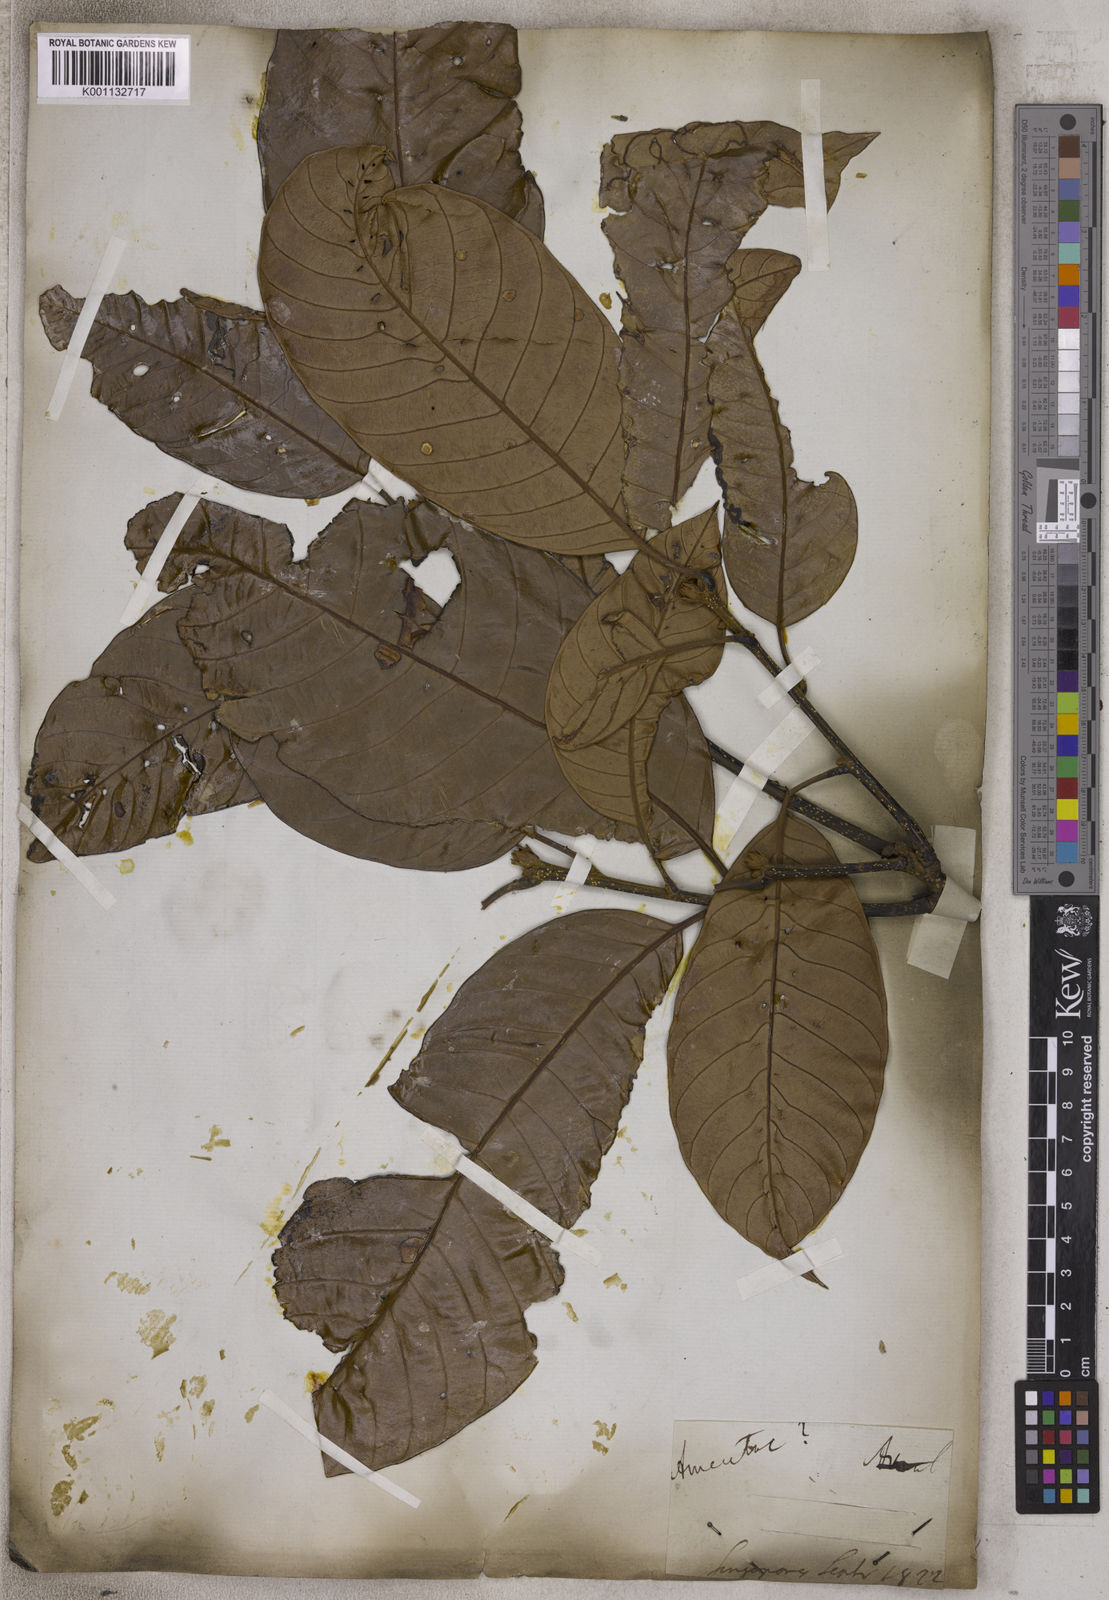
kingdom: Plantae
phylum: Tracheophyta
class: Magnoliopsida
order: Laurales
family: Lauraceae
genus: Cryptocarya
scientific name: Cryptocarya
